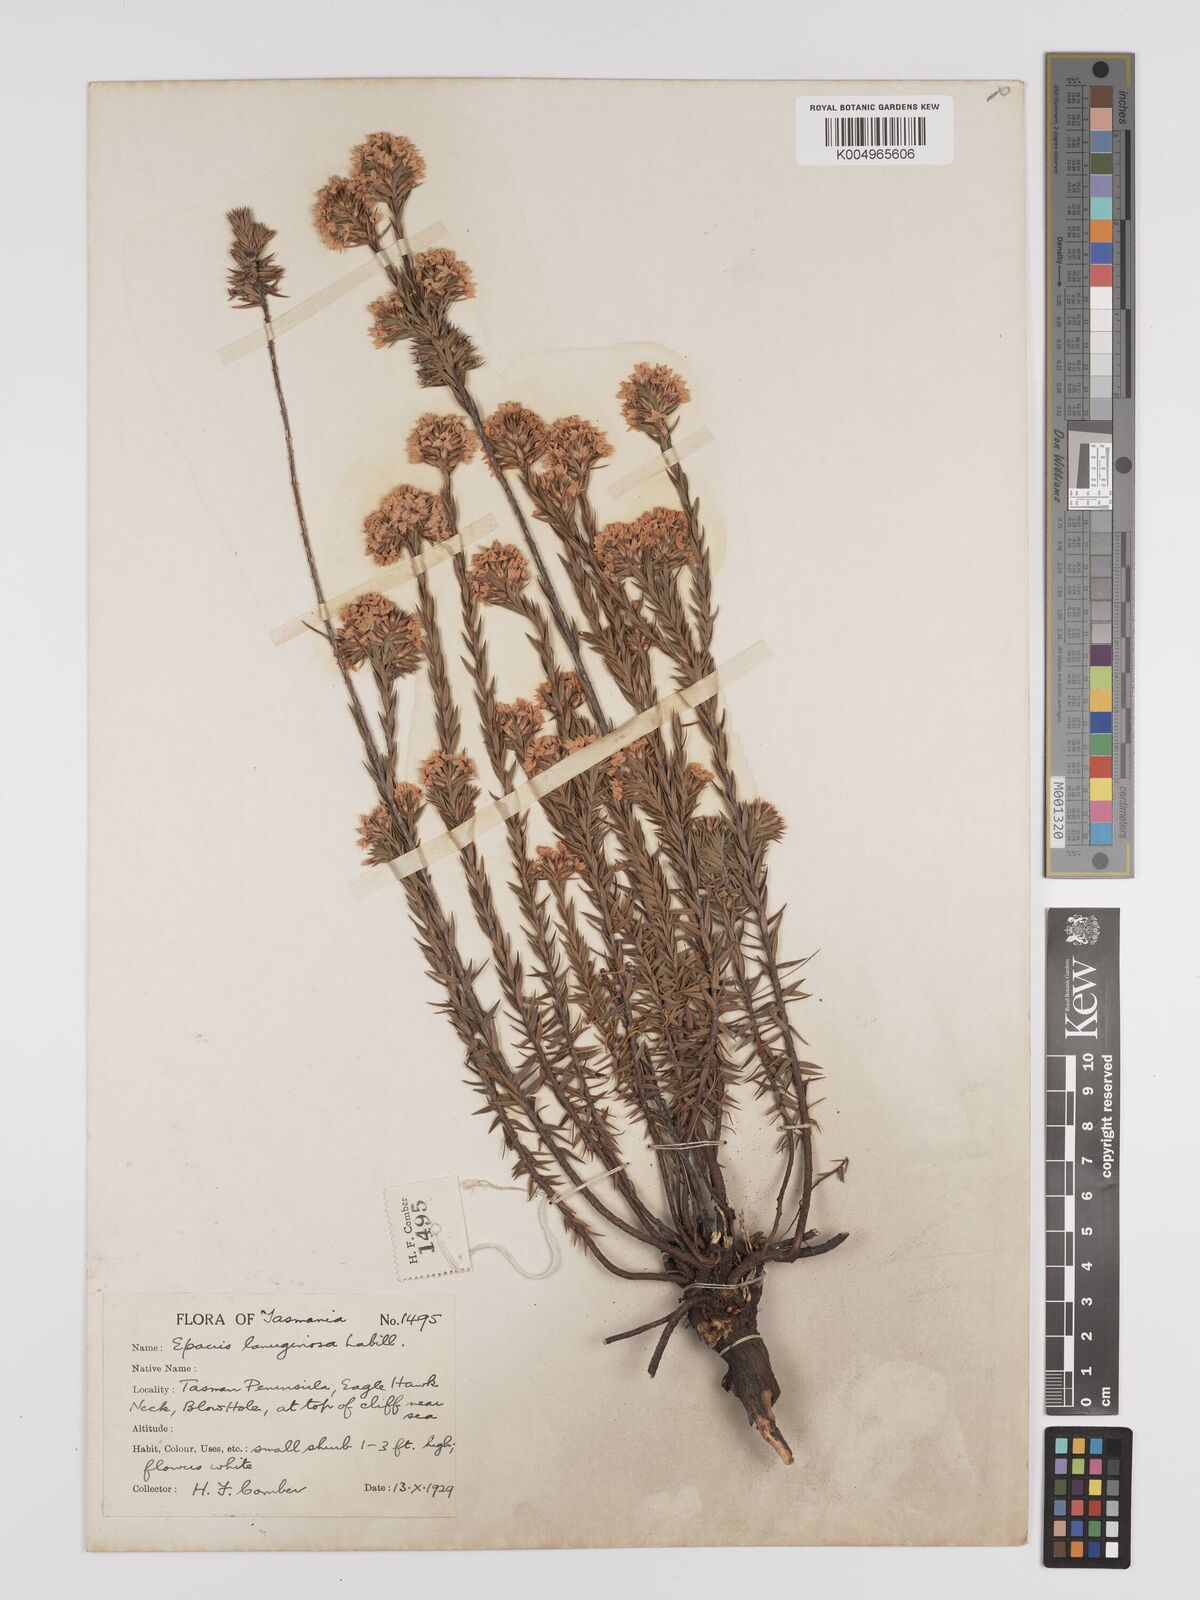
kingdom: Plantae
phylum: Tracheophyta
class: Magnoliopsida
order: Ericales
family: Ericaceae
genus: Epacris
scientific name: Epacris lanuginosa
